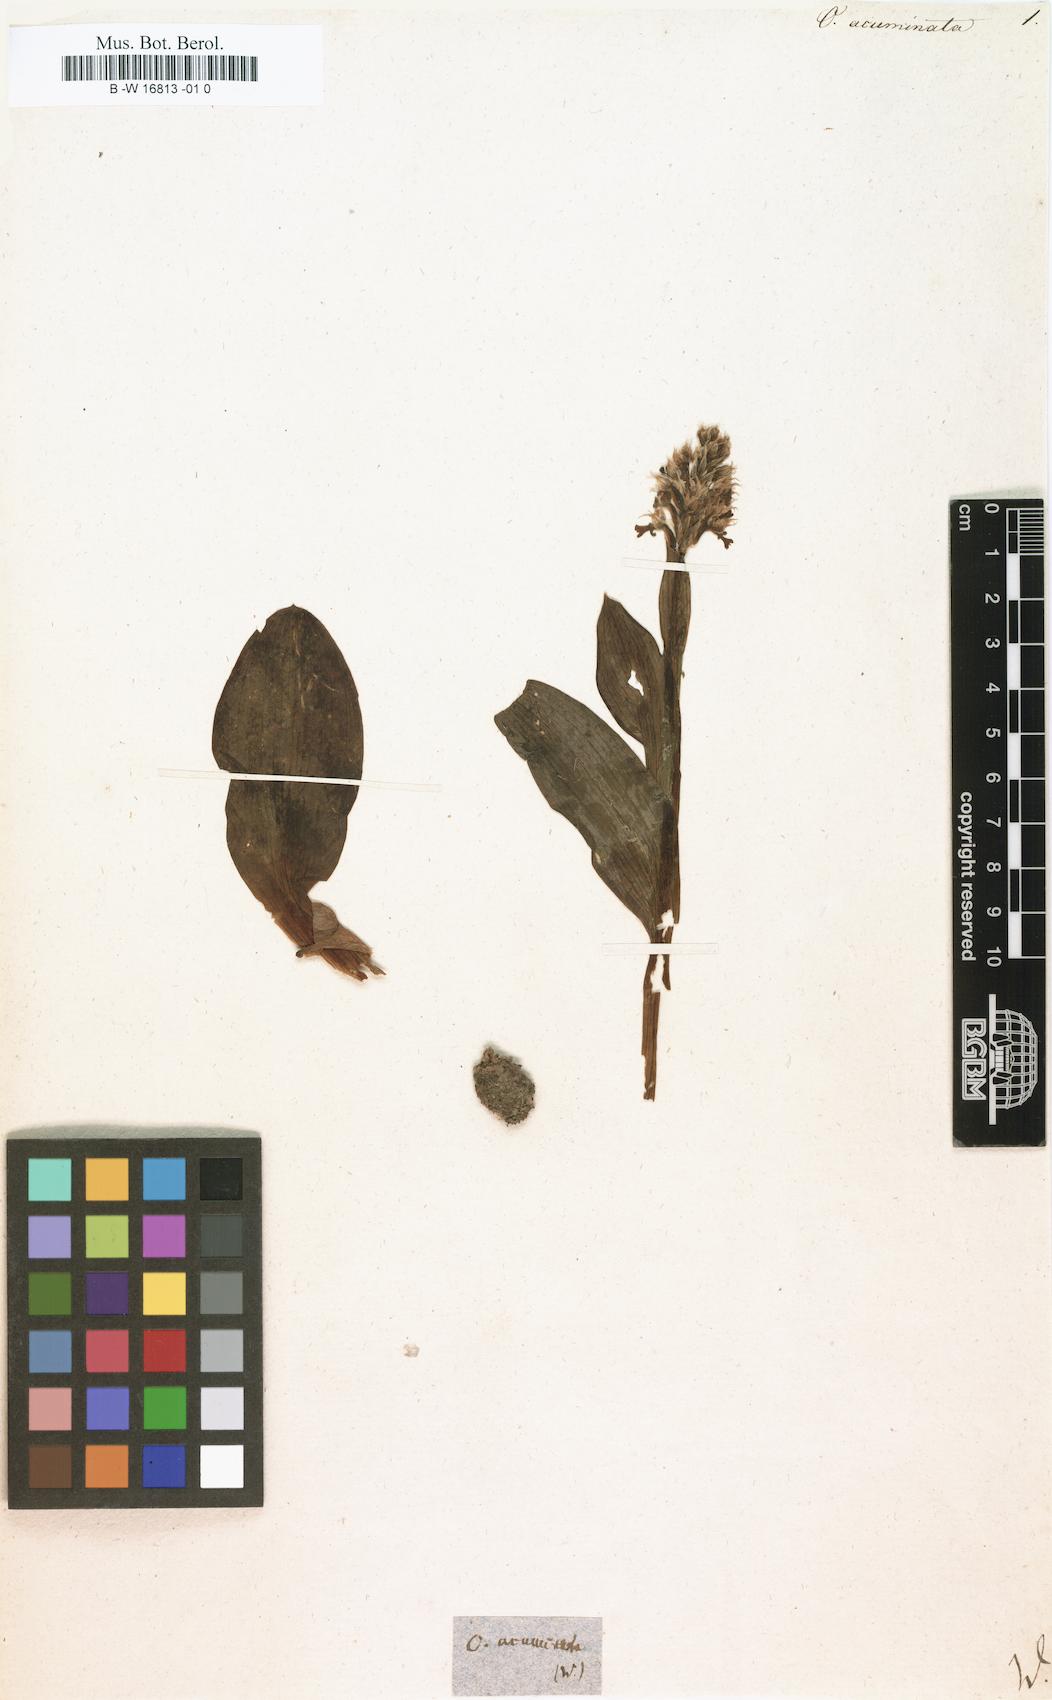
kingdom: Plantae
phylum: Tracheophyta
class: Liliopsida
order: Asparagales
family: Orchidaceae
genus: Orchis
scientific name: Orchis acuminata
